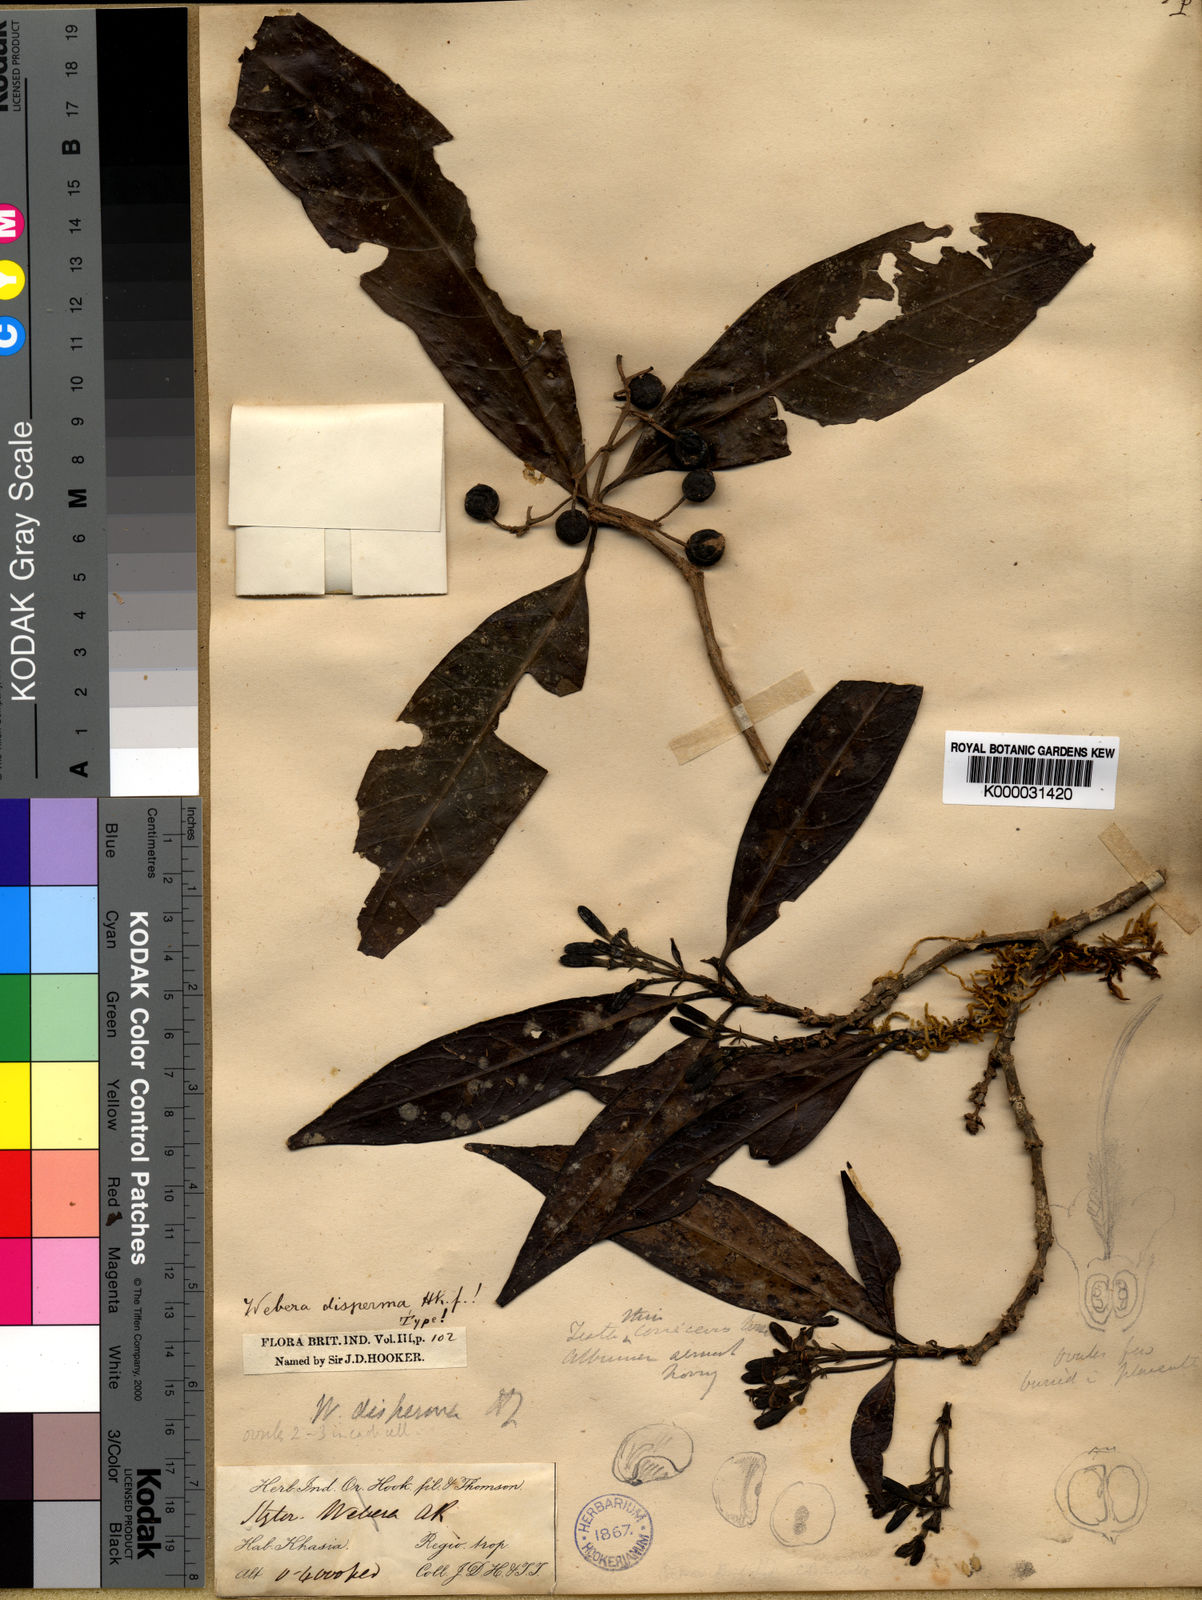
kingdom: Plantae
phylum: Tracheophyta
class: Magnoliopsida
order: Gentianales
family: Rubiaceae
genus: Tarenna
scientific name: Tarenna disperma
